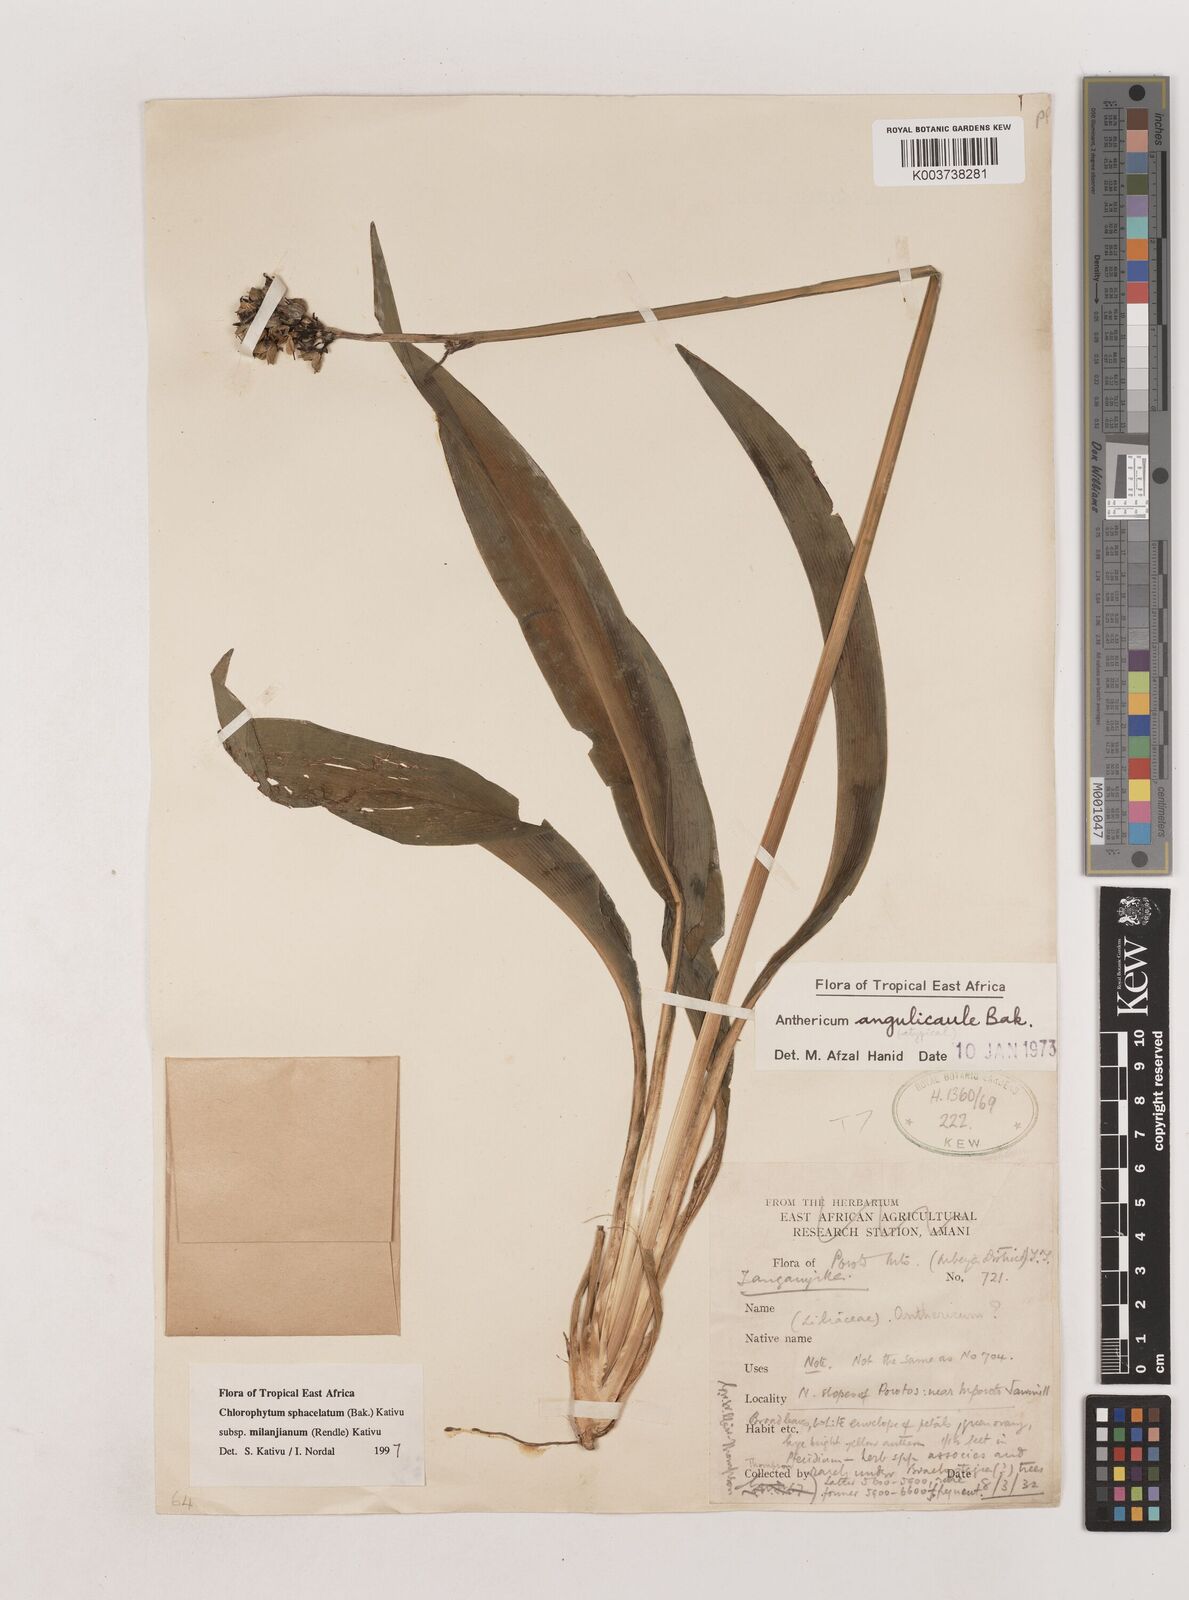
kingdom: Plantae
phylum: Tracheophyta
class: Liliopsida
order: Asparagales
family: Asparagaceae
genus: Chlorophytum
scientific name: Chlorophytum sphacelatum
